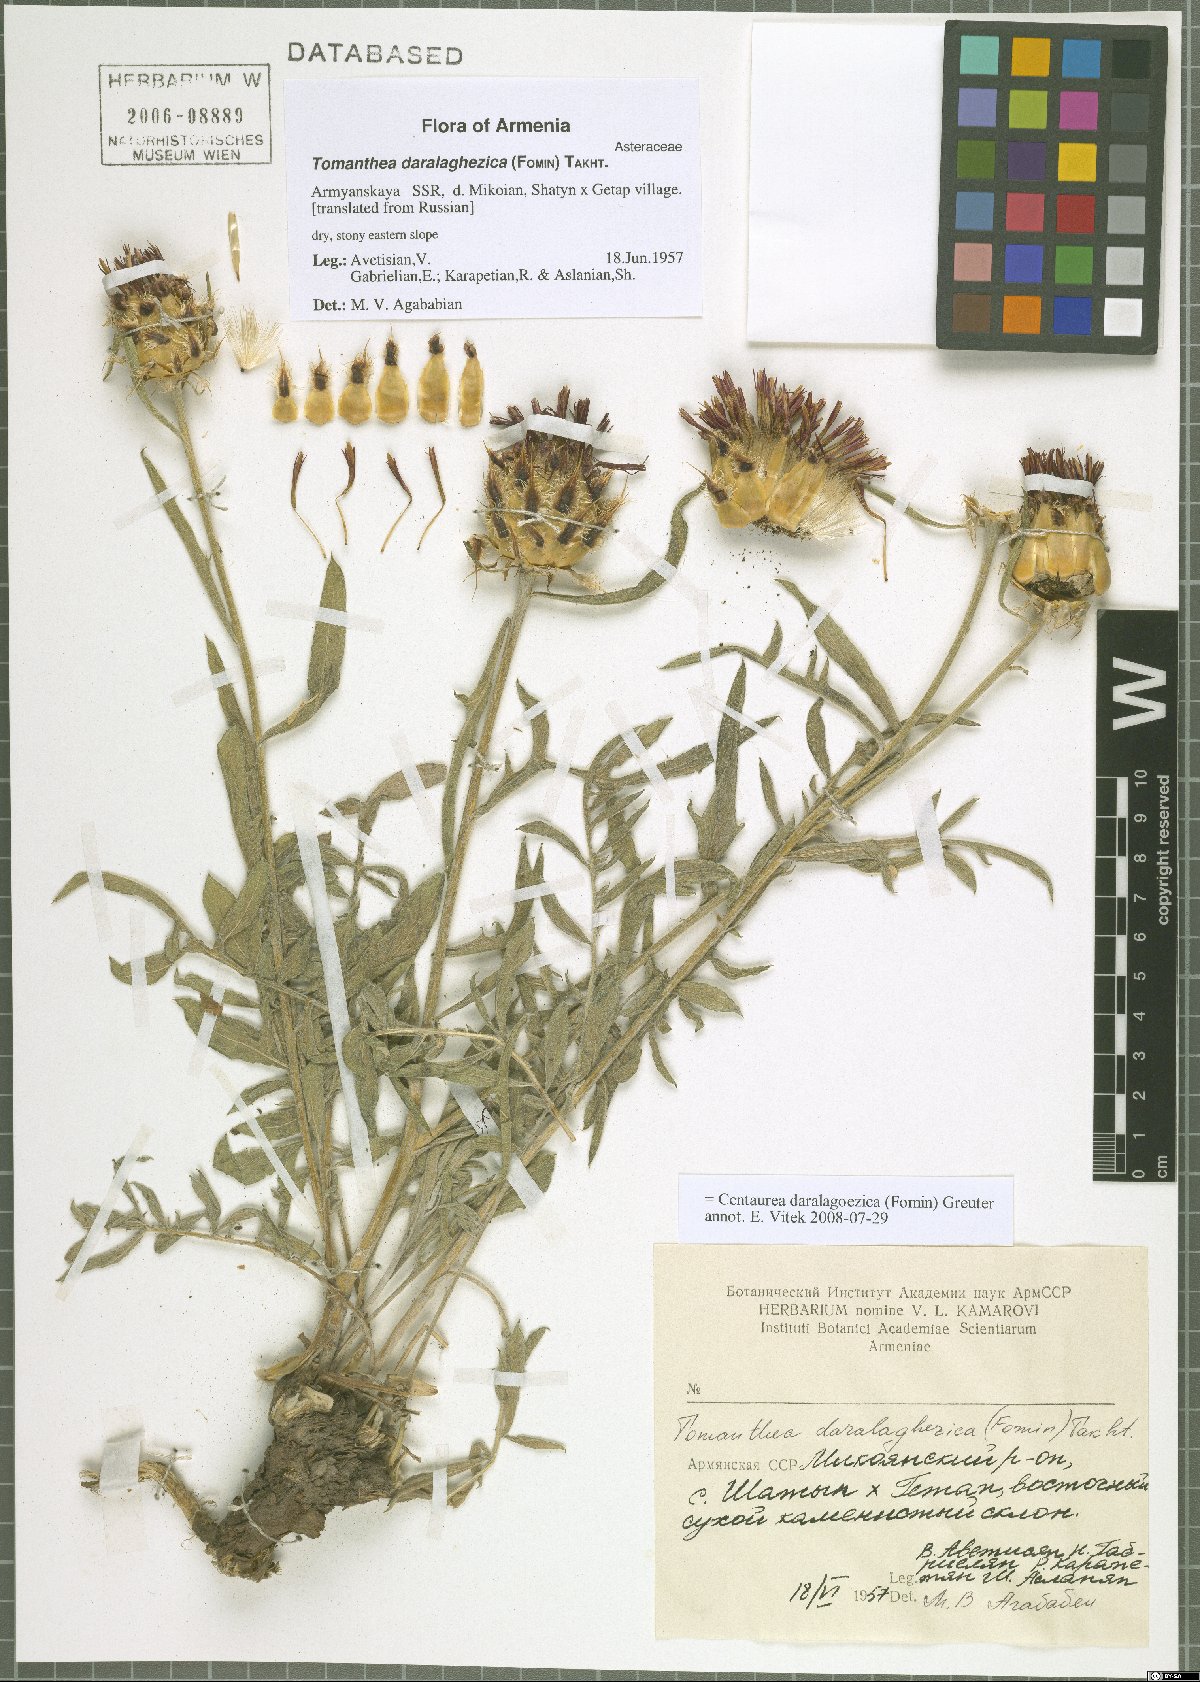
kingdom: Plantae
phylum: Tracheophyta
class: Magnoliopsida
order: Asterales
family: Asteraceae
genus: Centaurea
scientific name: Centaurea daralagoezica
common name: Daralagezian tomanthea
